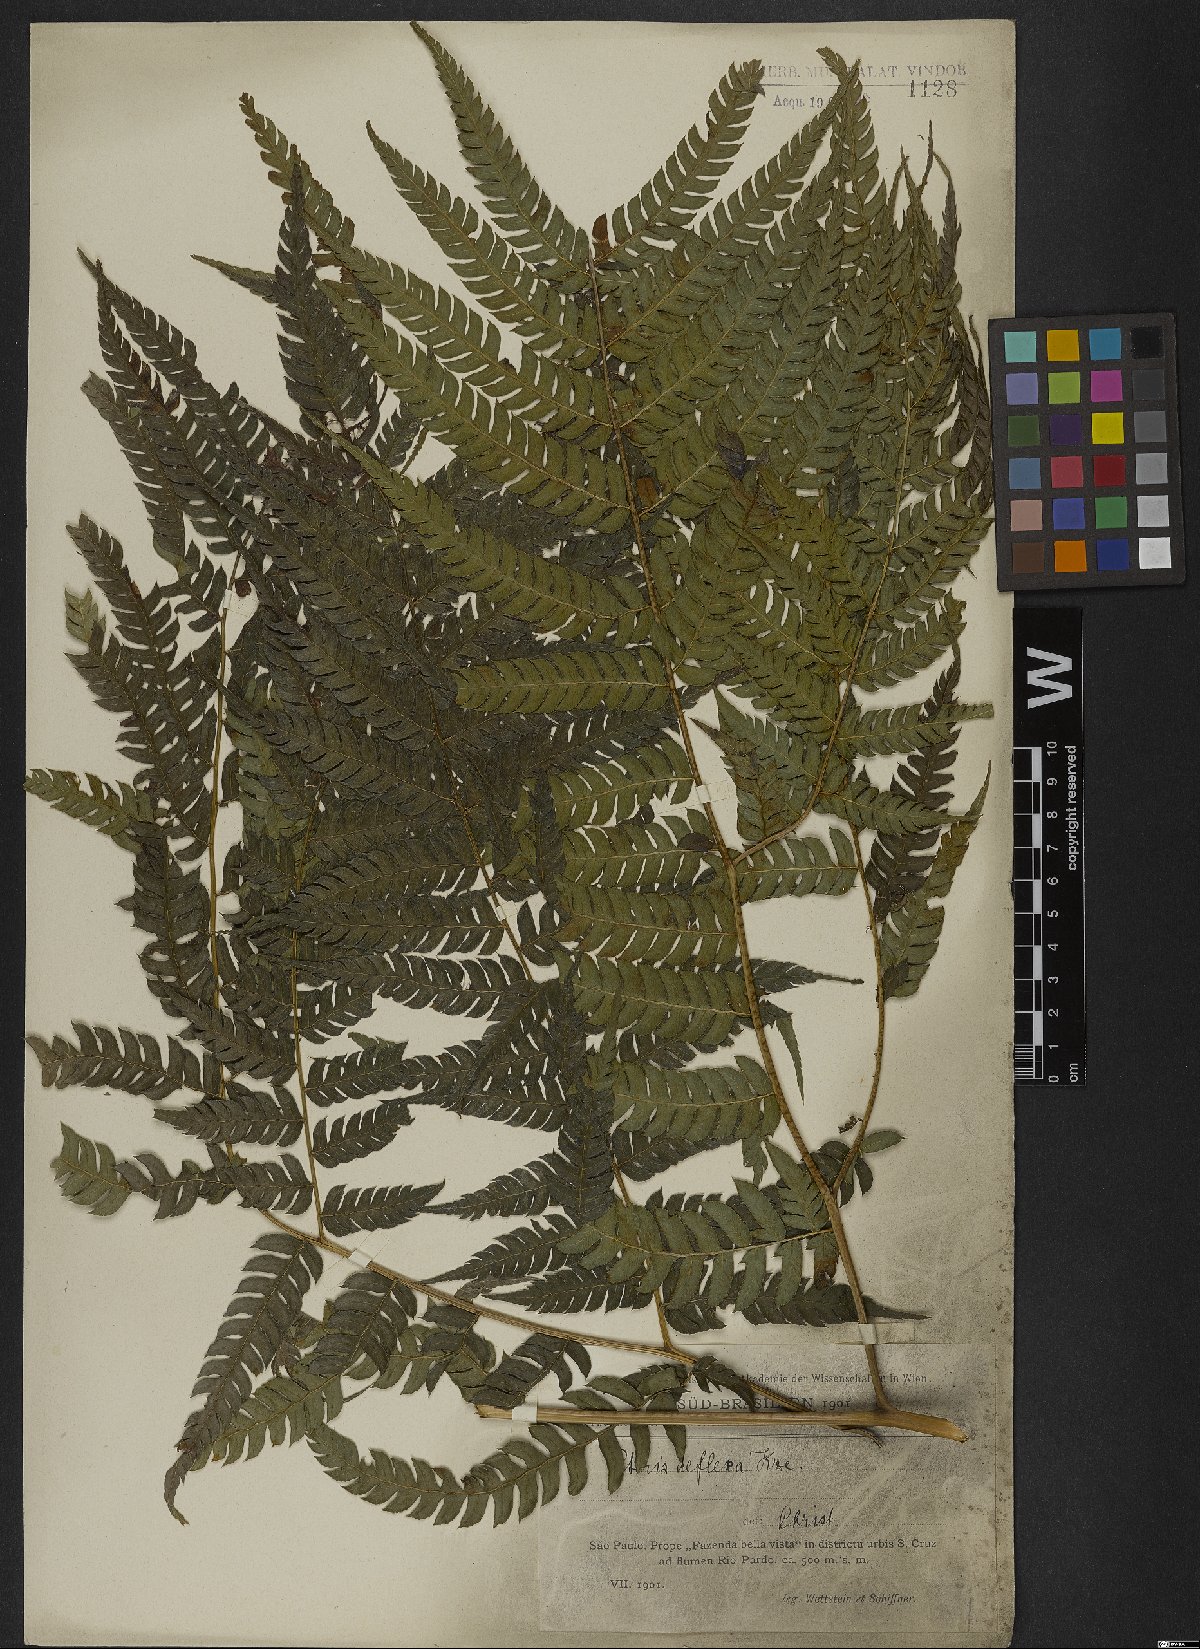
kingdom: Plantae
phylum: Tracheophyta
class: Polypodiopsida
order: Polypodiales
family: Pteridaceae
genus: Pteris
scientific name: Pteris deflexa
